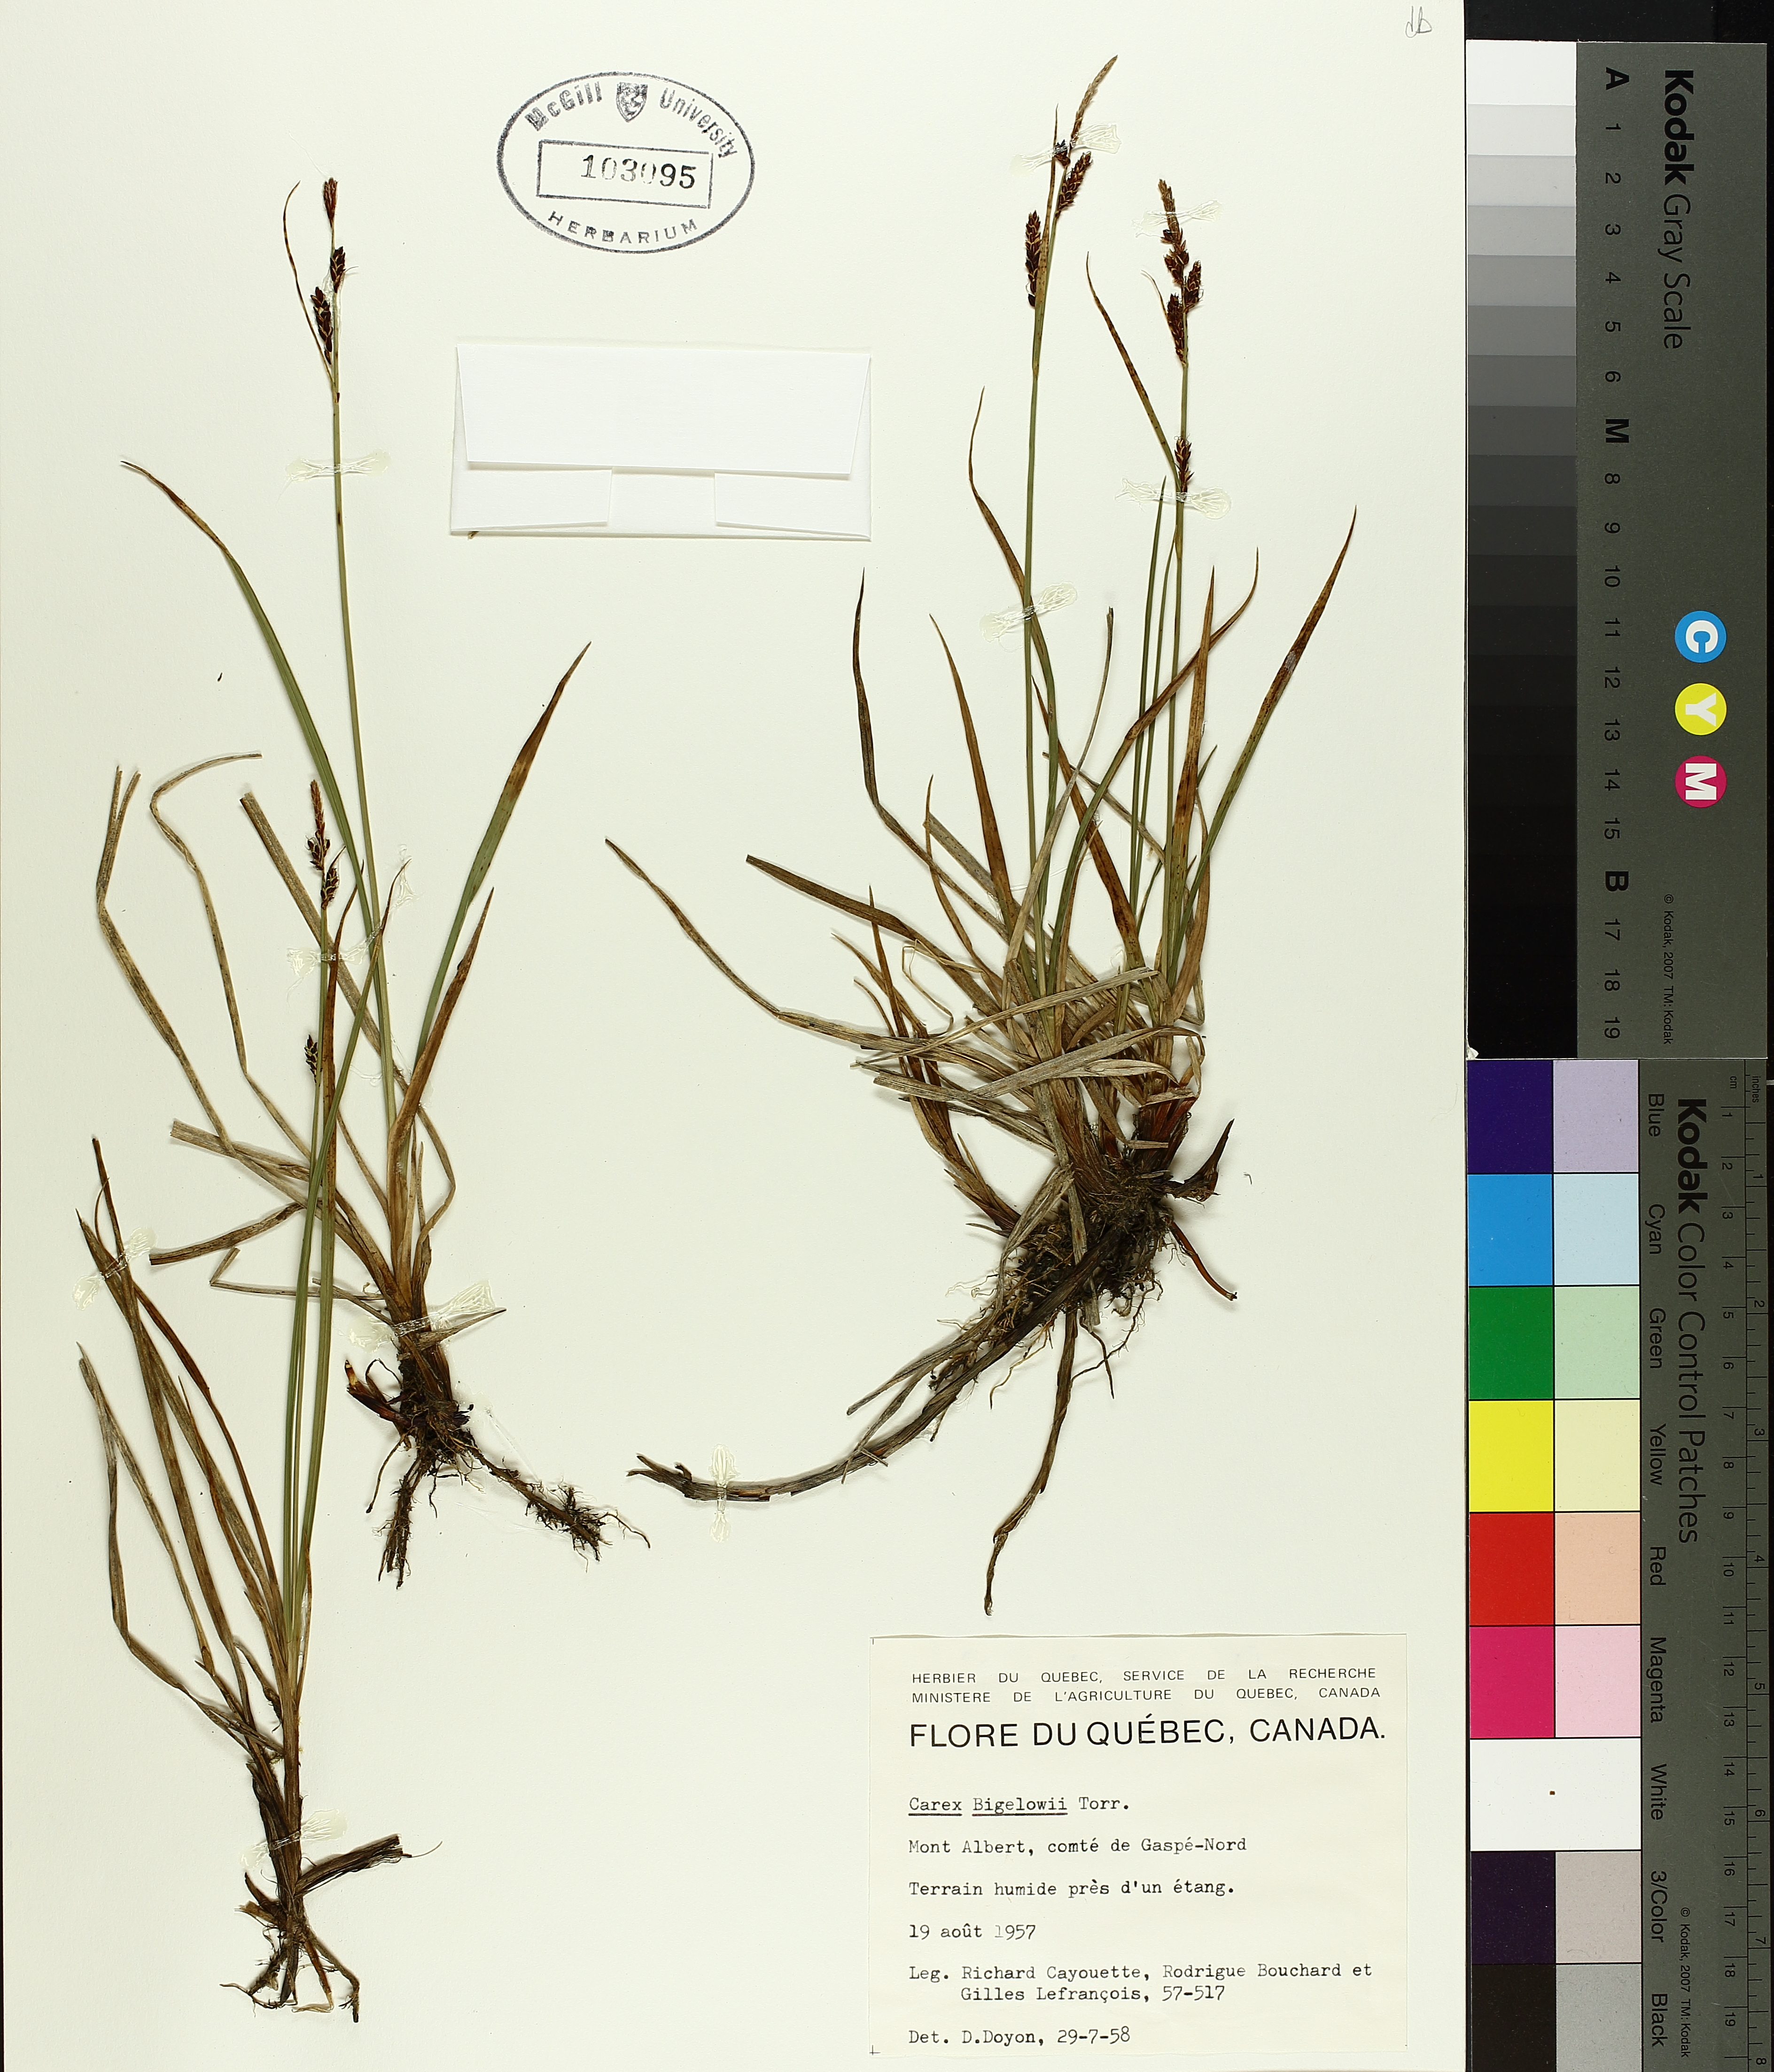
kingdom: Plantae
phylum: Tracheophyta
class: Liliopsida
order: Poales
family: Cyperaceae
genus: Carex
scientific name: Carex bigelowii
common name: Stiff sedge
